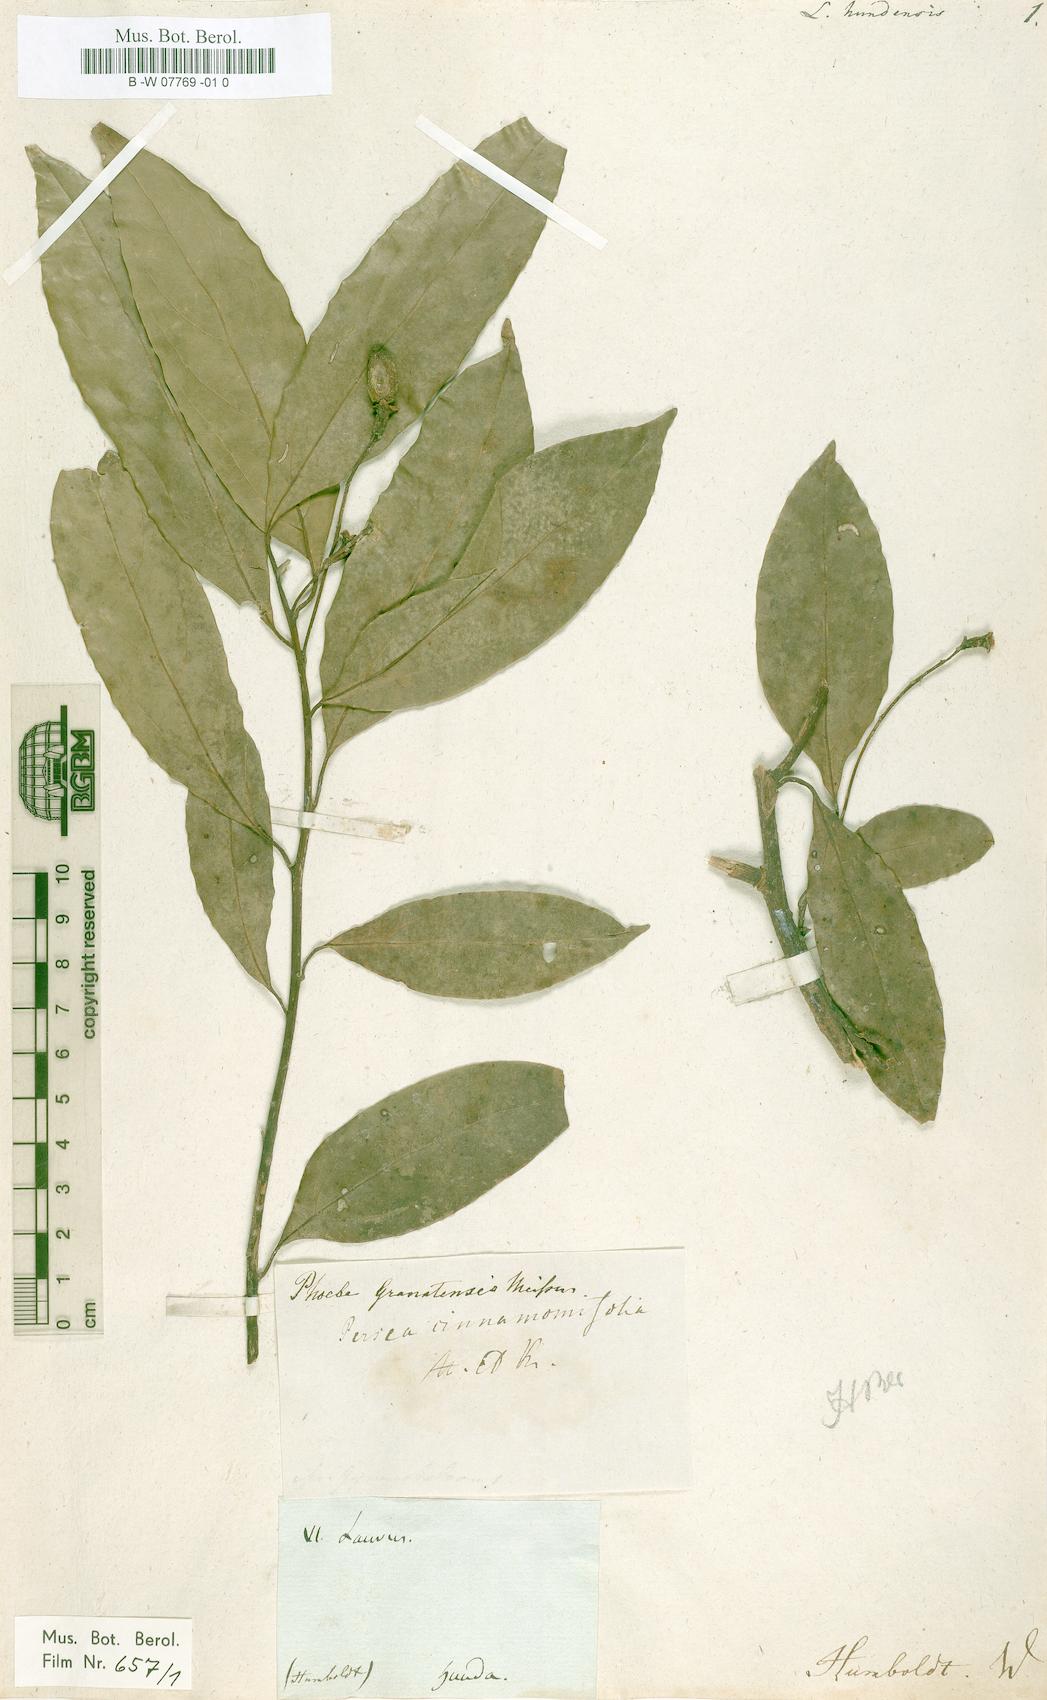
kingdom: Plantae
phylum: Tracheophyta
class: Magnoliopsida
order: Laurales
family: Lauraceae
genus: Aiouea
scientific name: Aiouea montana
